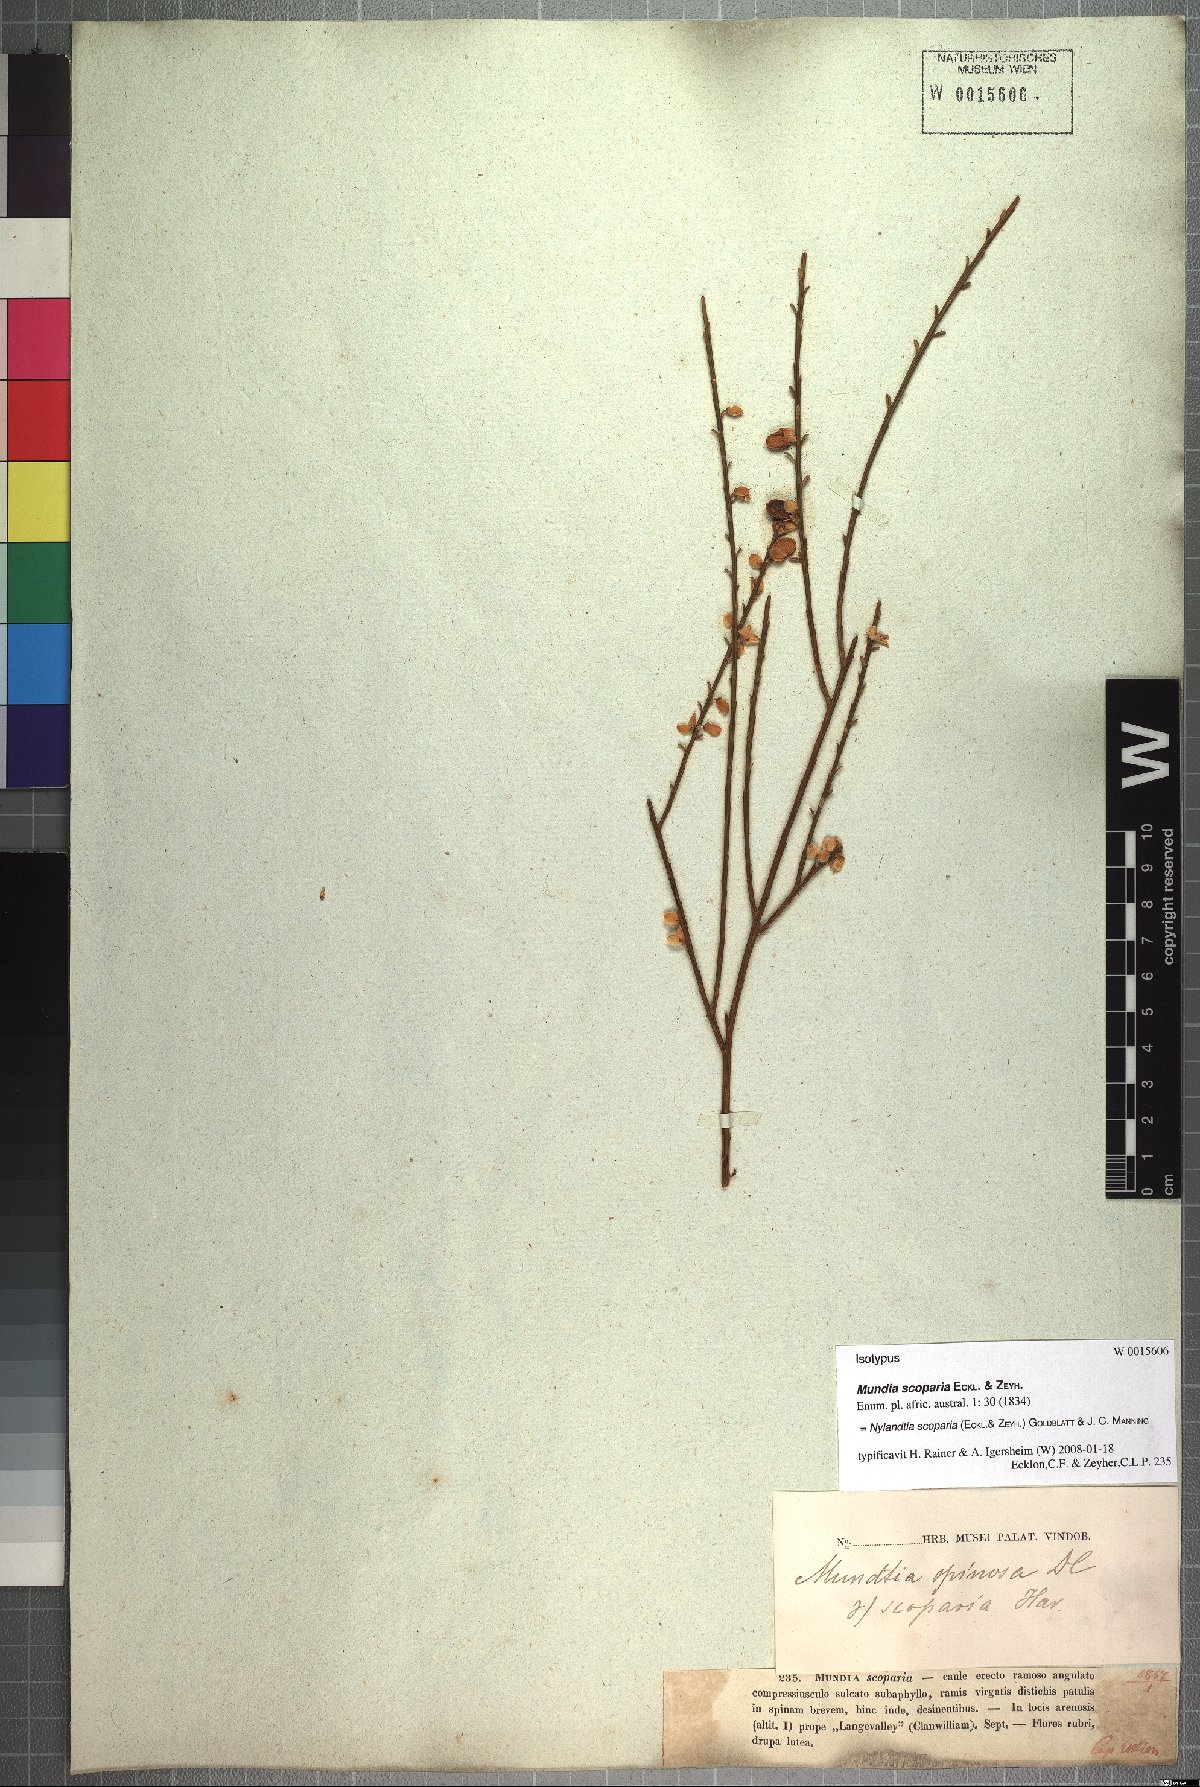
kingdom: Plantae
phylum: Tracheophyta
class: Magnoliopsida
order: Fabales
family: Polygalaceae
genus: Muraltia
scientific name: Muraltia scoparia
